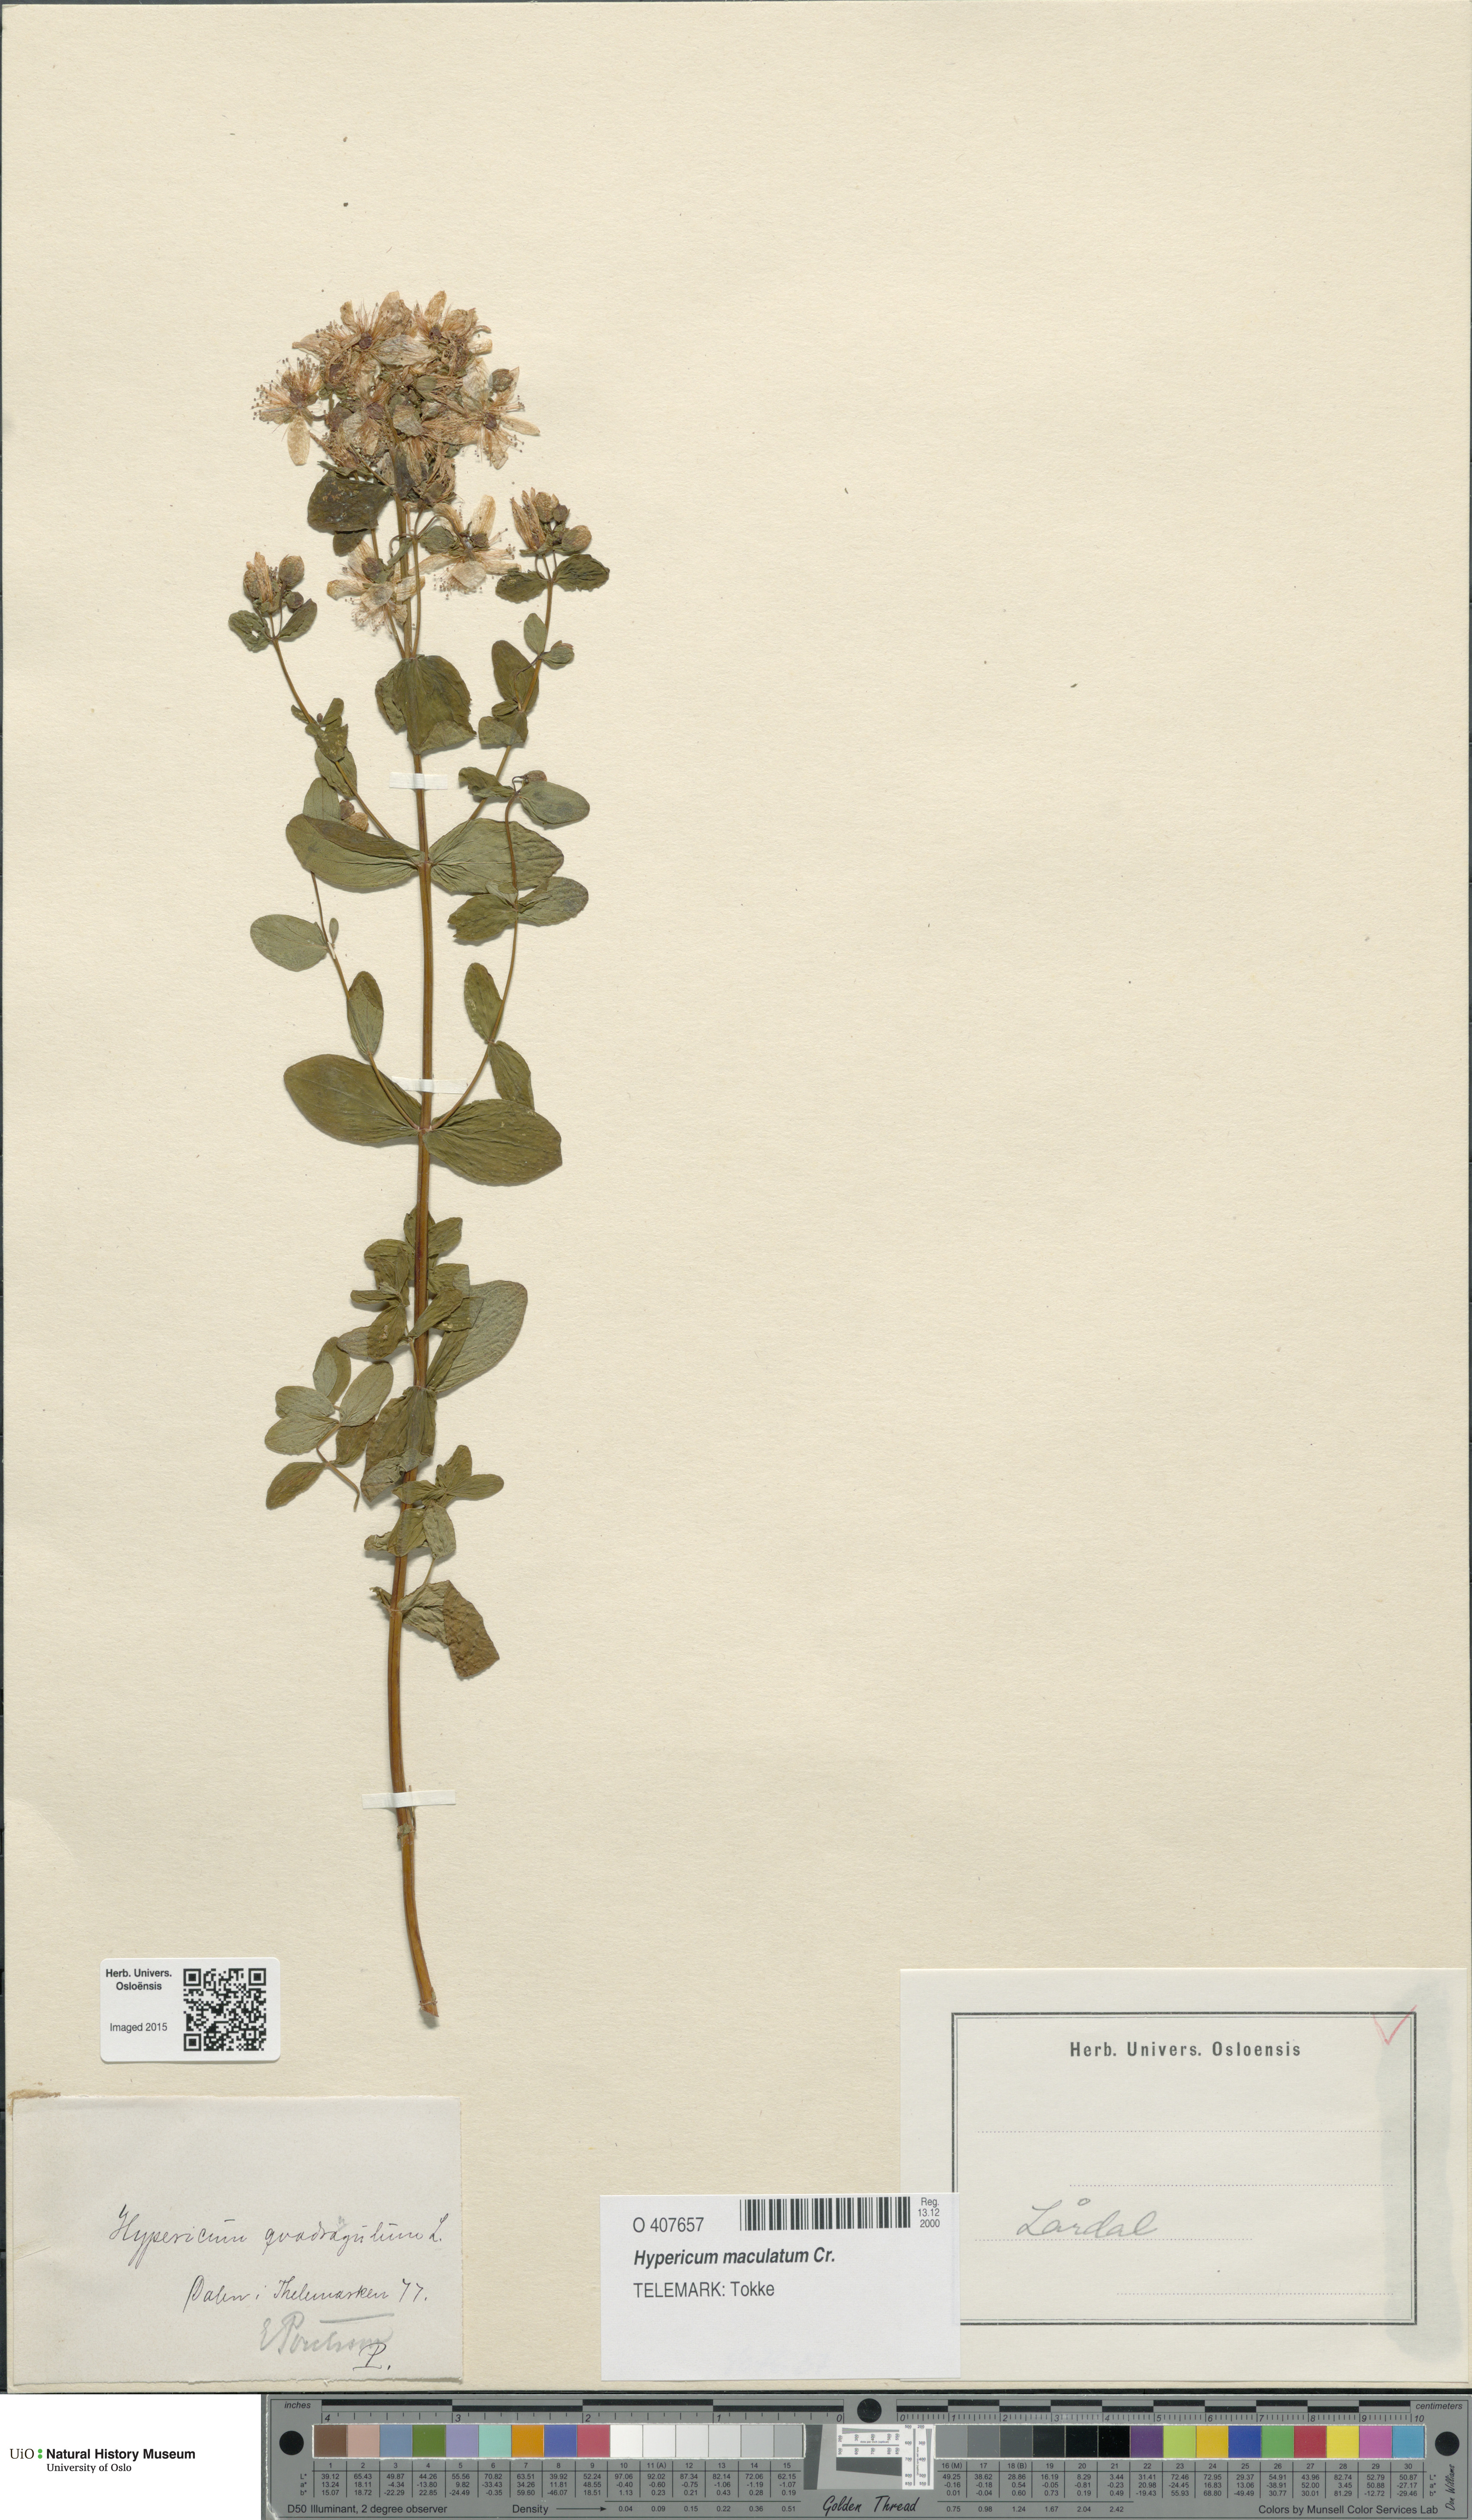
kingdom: Plantae
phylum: Tracheophyta
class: Magnoliopsida
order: Malpighiales
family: Hypericaceae
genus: Hypericum
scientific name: Hypericum maculatum
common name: Imperforate st. john's-wort
